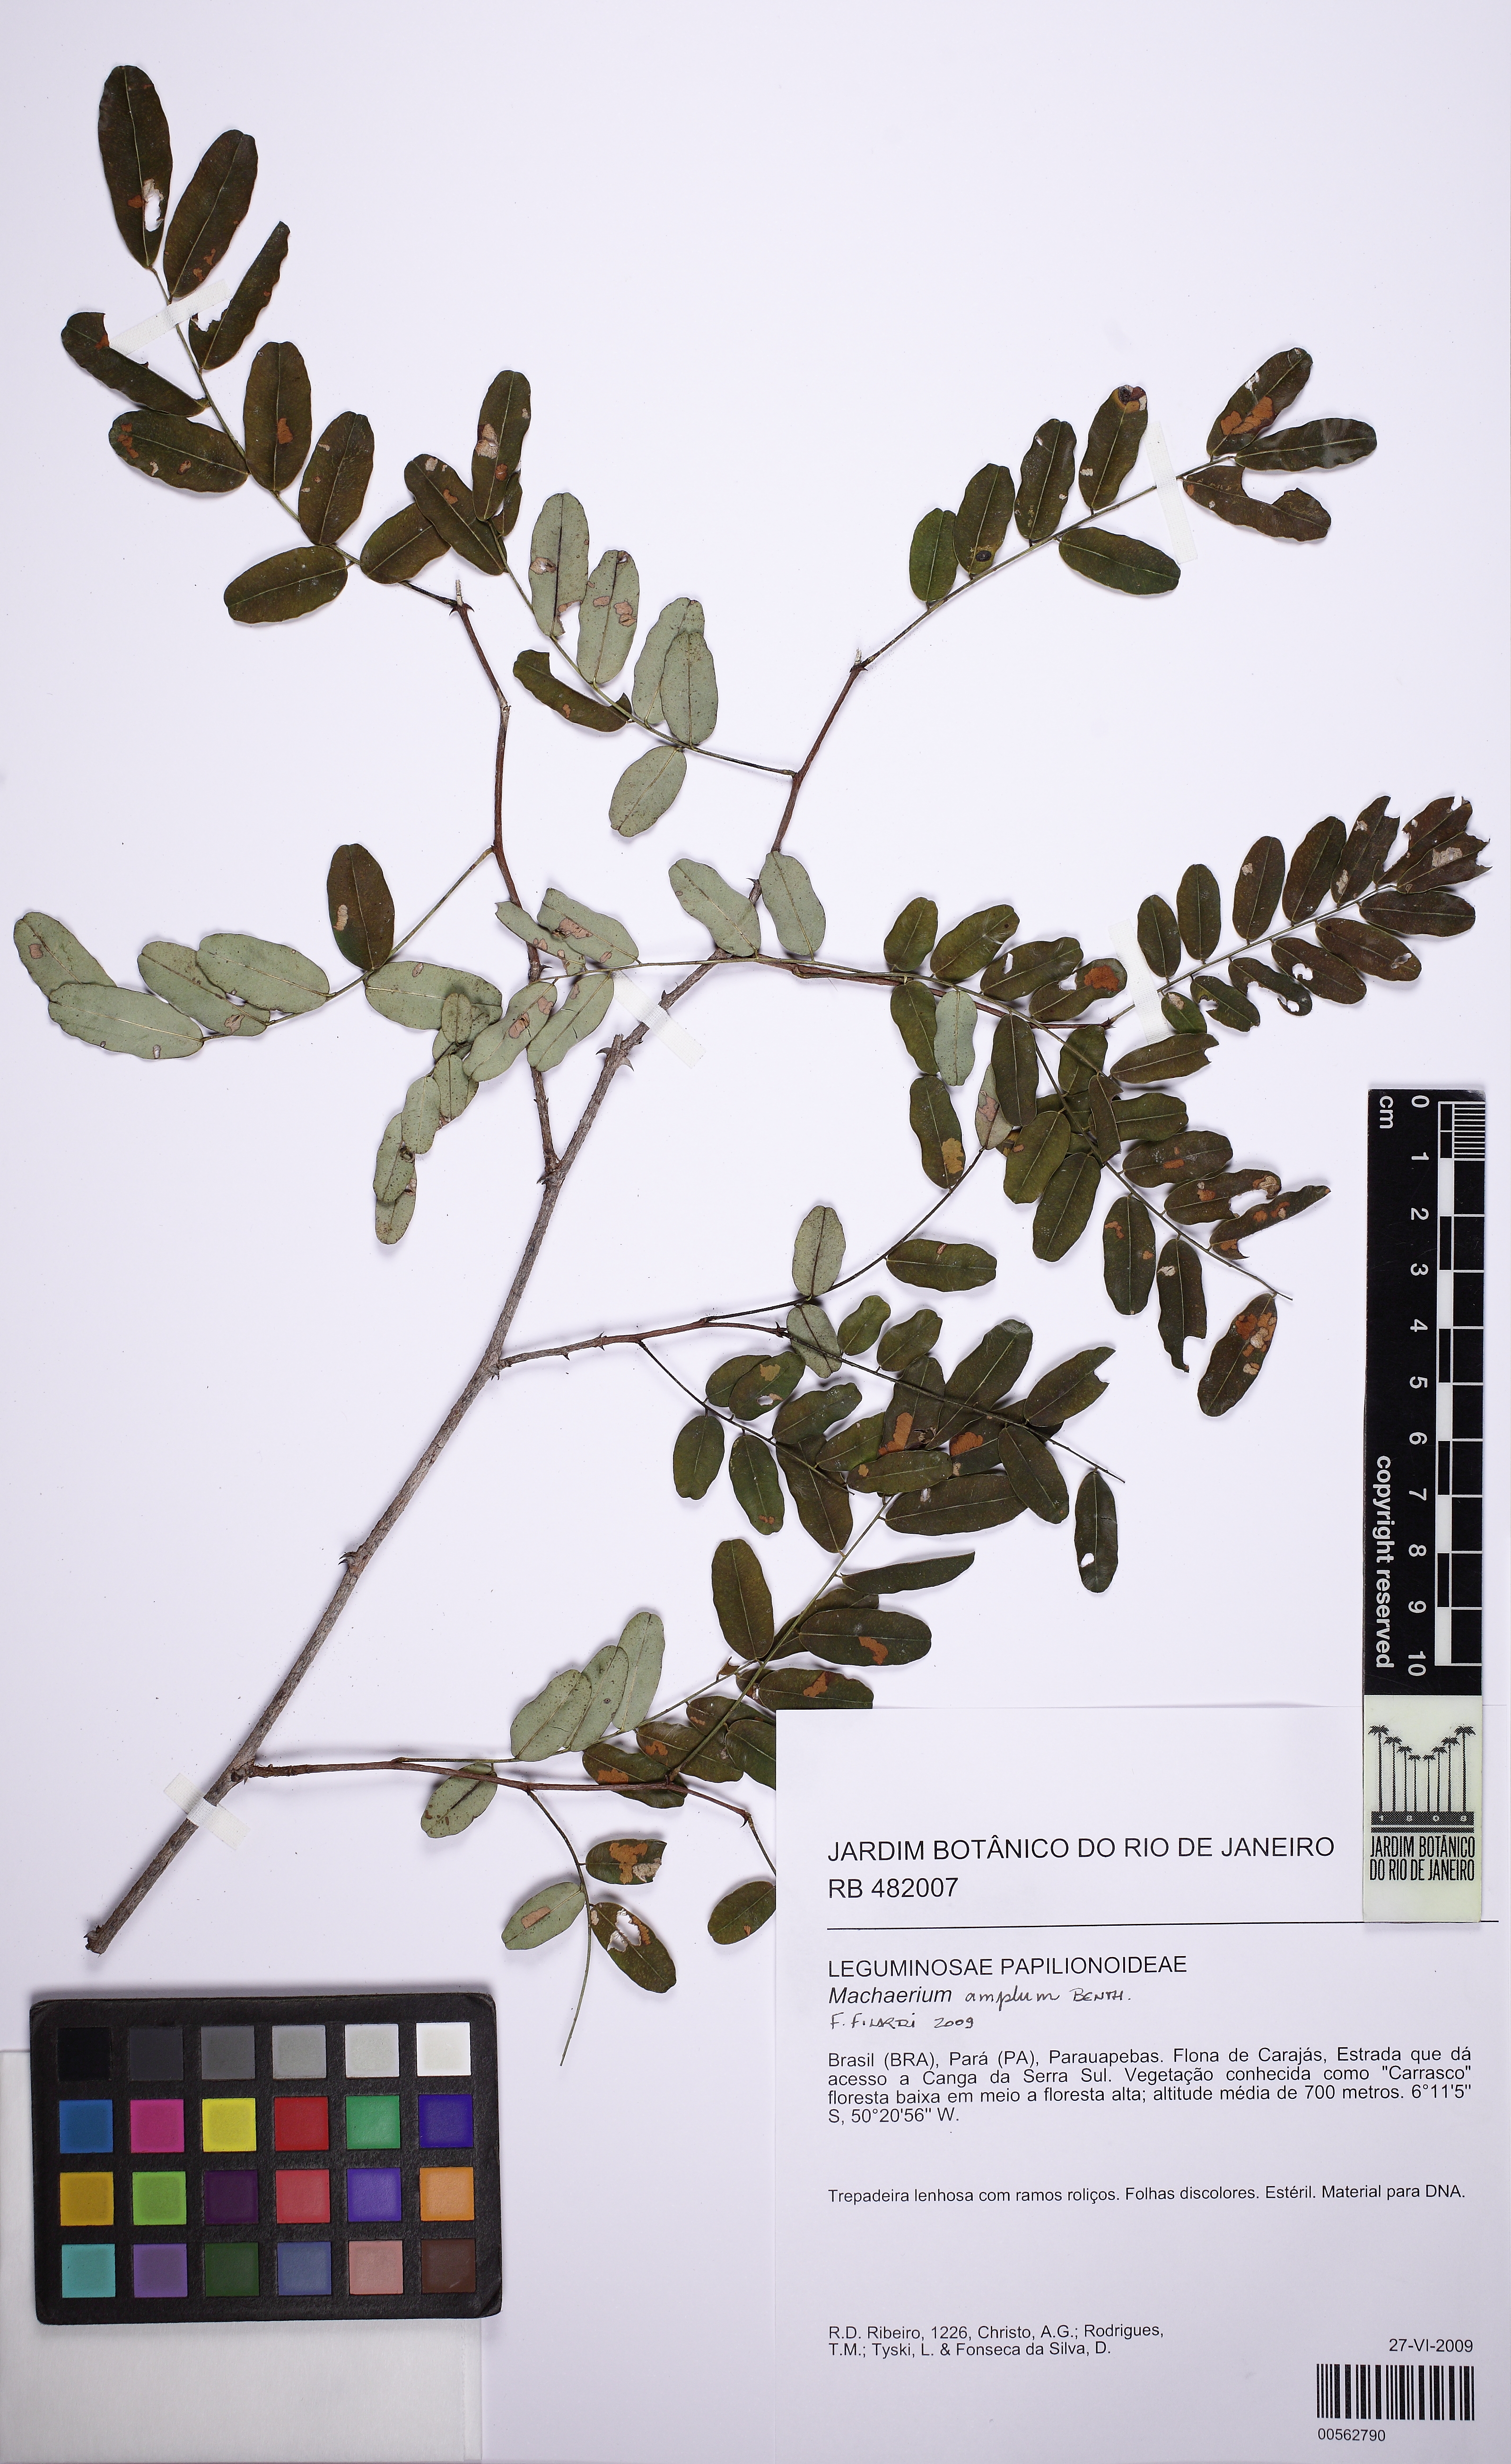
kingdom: Plantae
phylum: Tracheophyta
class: Magnoliopsida
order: Fabales
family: Fabaceae
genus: Machaerium
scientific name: Machaerium amplum
